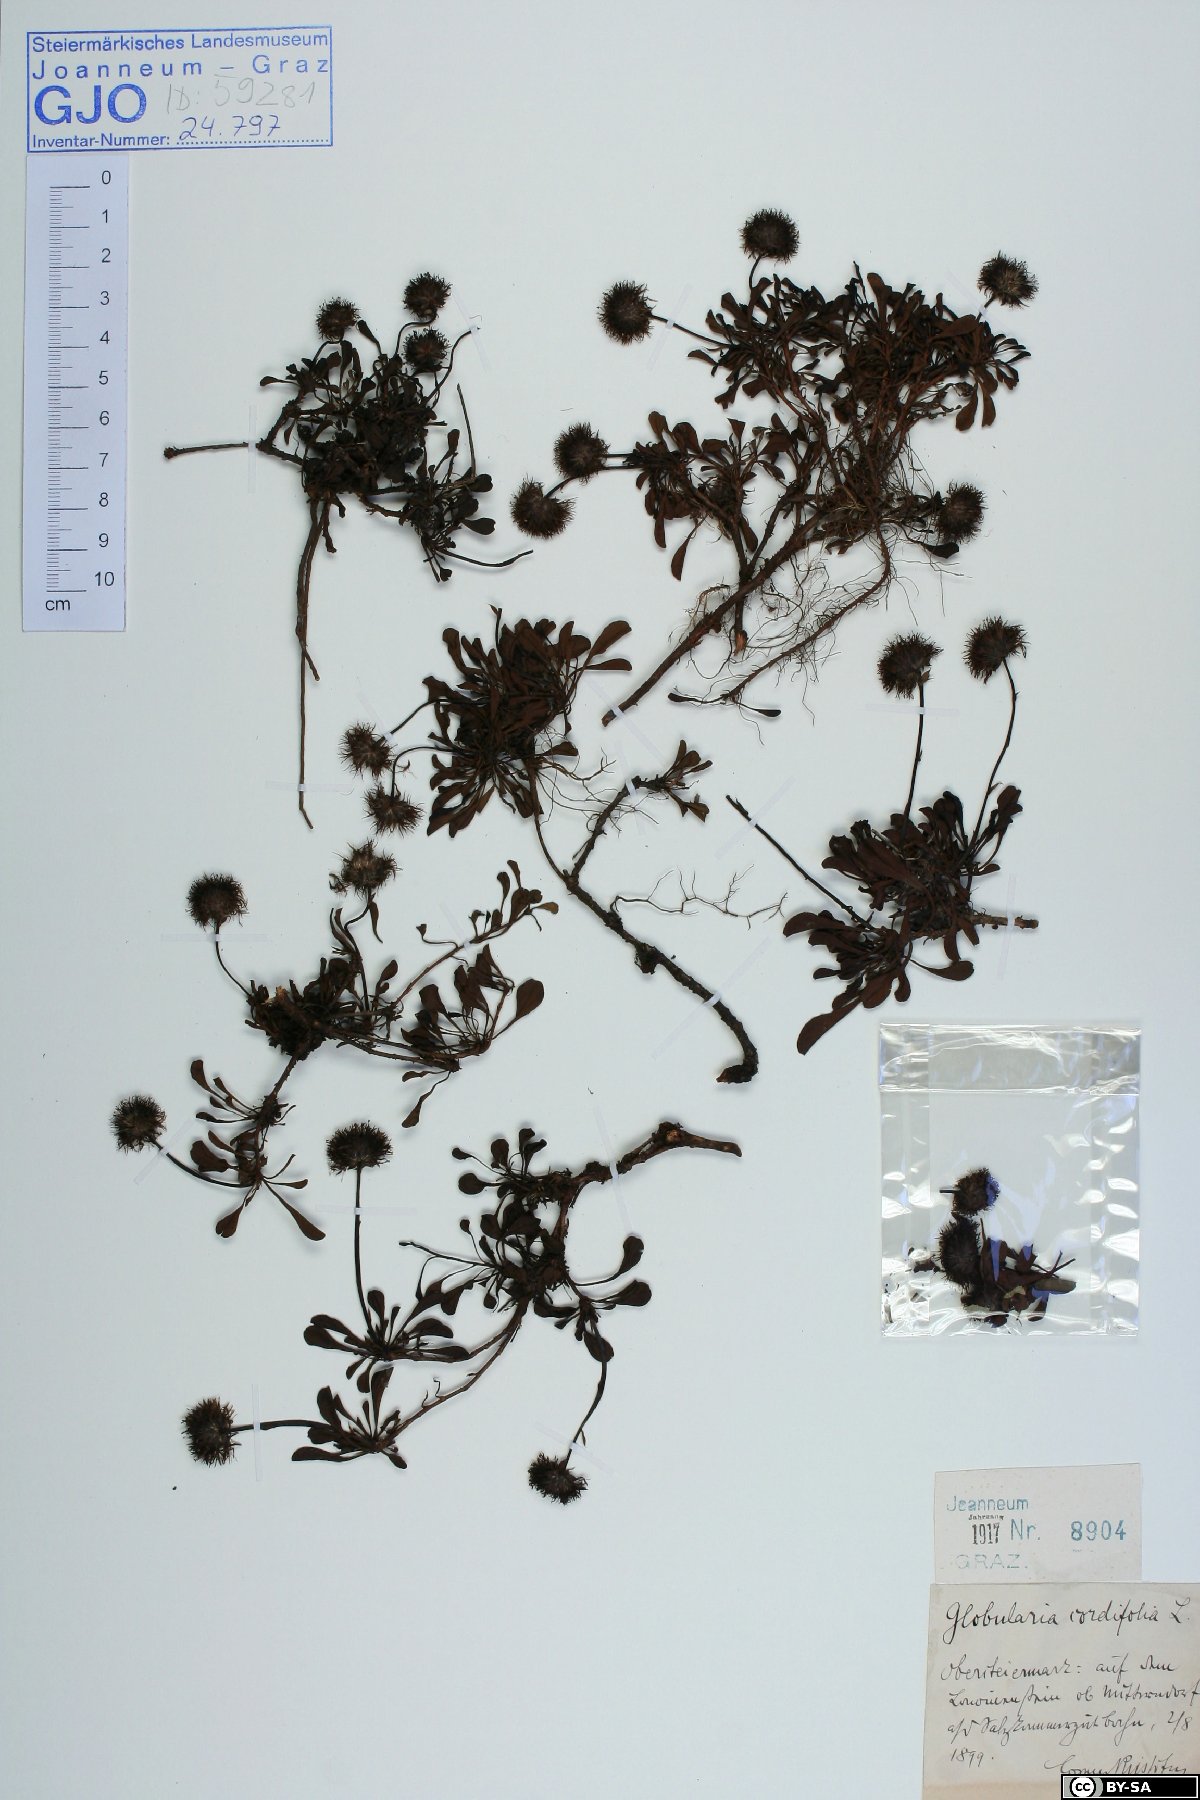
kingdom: Plantae
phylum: Tracheophyta
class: Magnoliopsida
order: Lamiales
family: Plantaginaceae
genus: Globularia
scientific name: Globularia cordifolia
